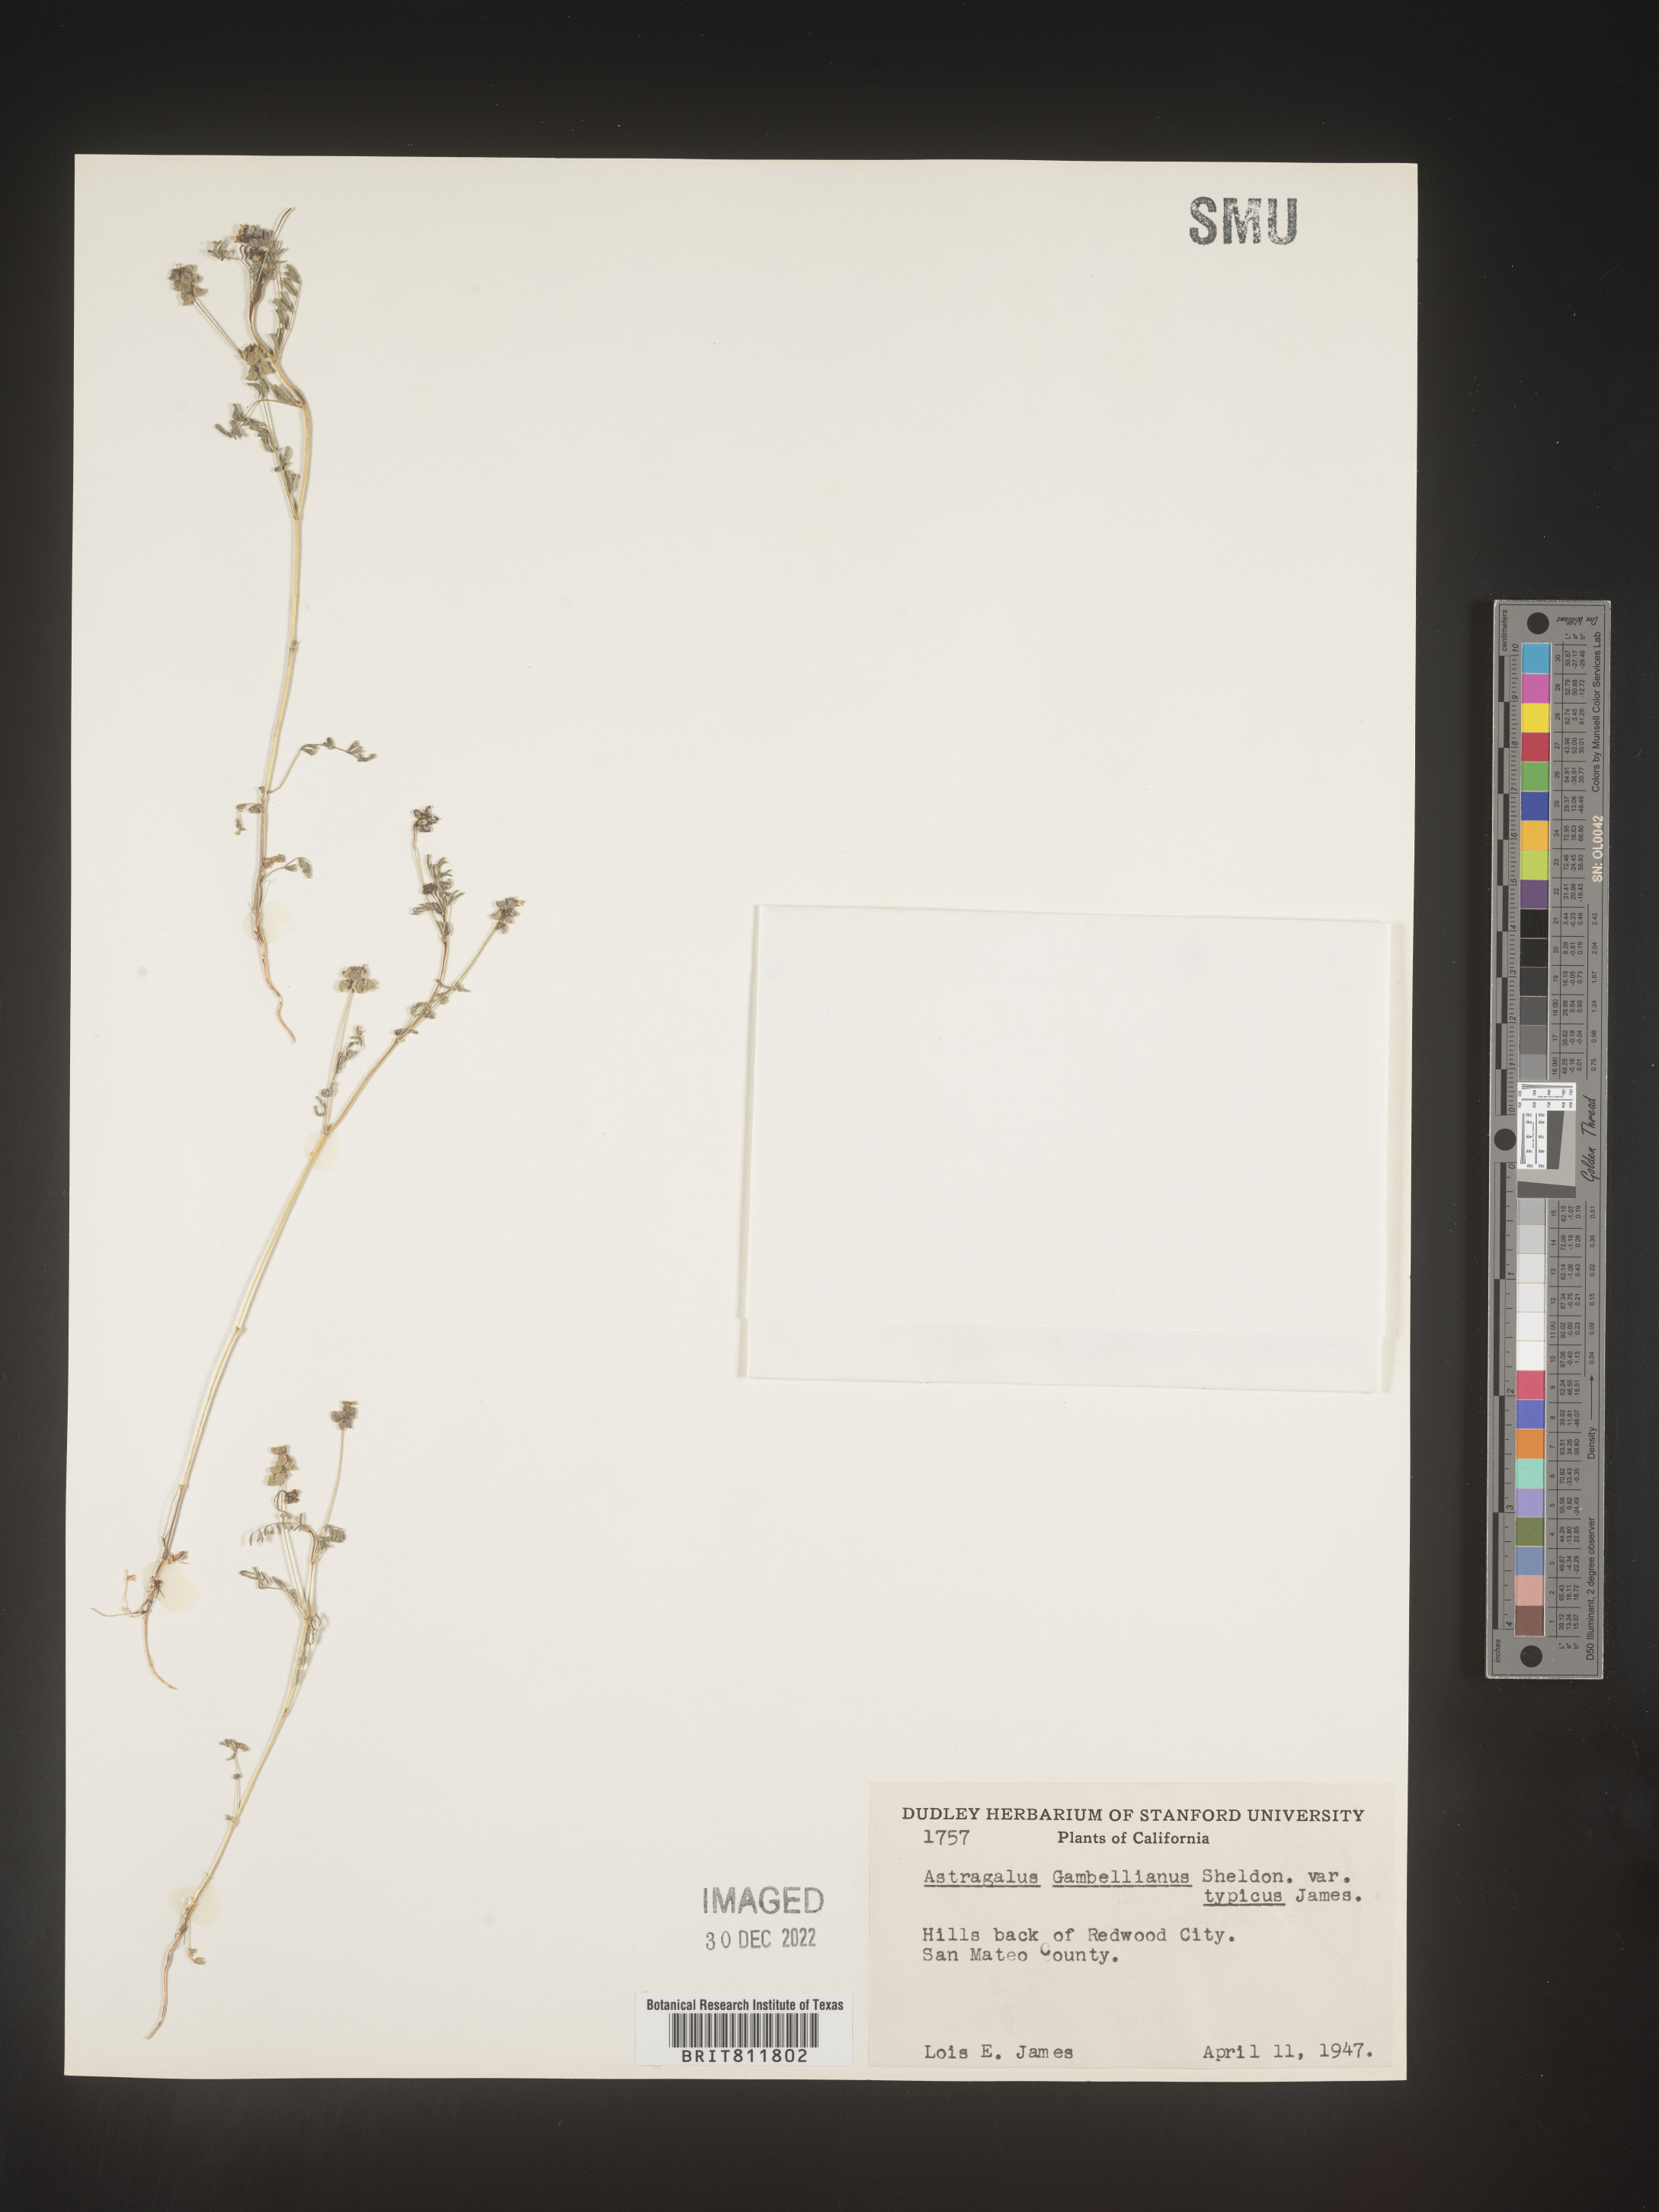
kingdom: Plantae
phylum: Tracheophyta
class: Magnoliopsida
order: Fabales
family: Fabaceae
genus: Astragalus
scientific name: Astragalus
